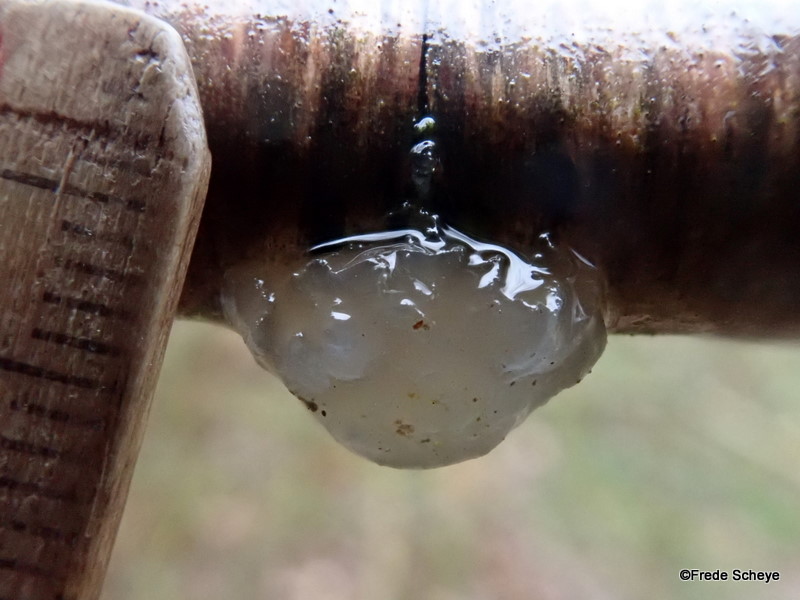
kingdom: Fungi
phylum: Basidiomycota
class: Agaricomycetes
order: Auriculariales
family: Hyaloriaceae
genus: Myxarium
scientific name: Myxarium nucleatum
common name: klar bævretop
